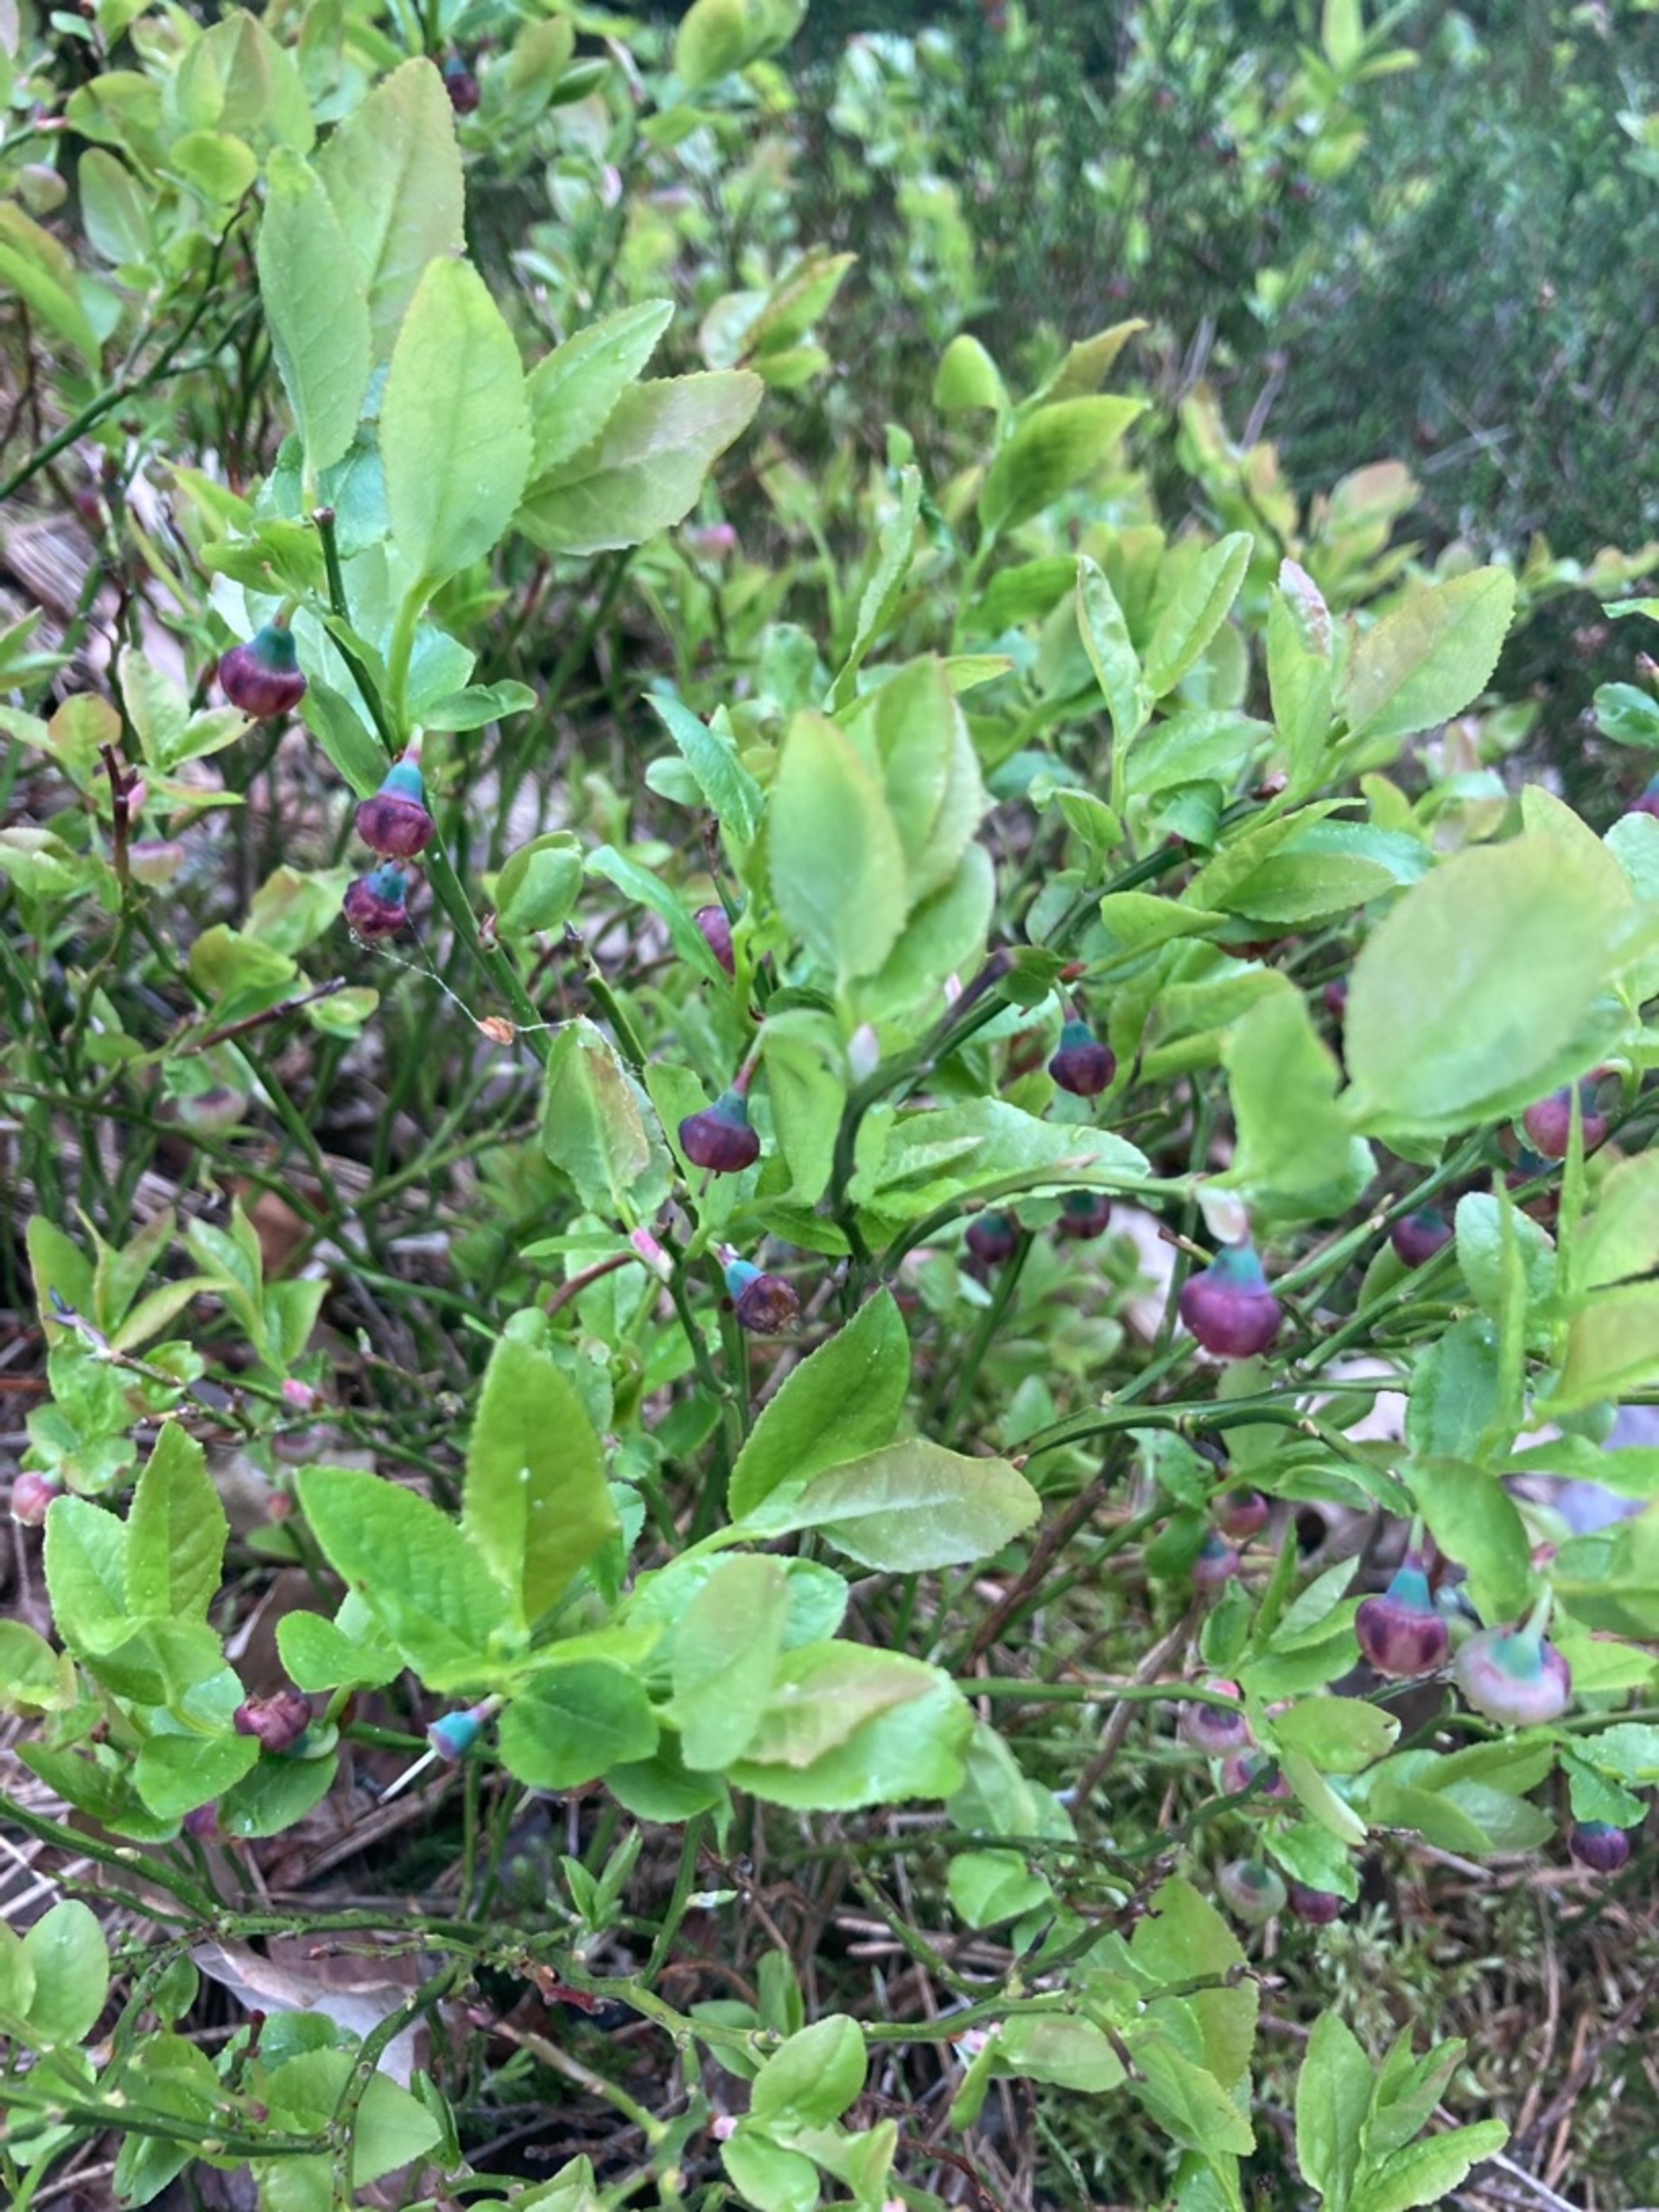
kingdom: Plantae
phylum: Tracheophyta
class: Magnoliopsida
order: Ericales
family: Ericaceae
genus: Vaccinium
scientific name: Vaccinium myrtillus
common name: Blåbær
